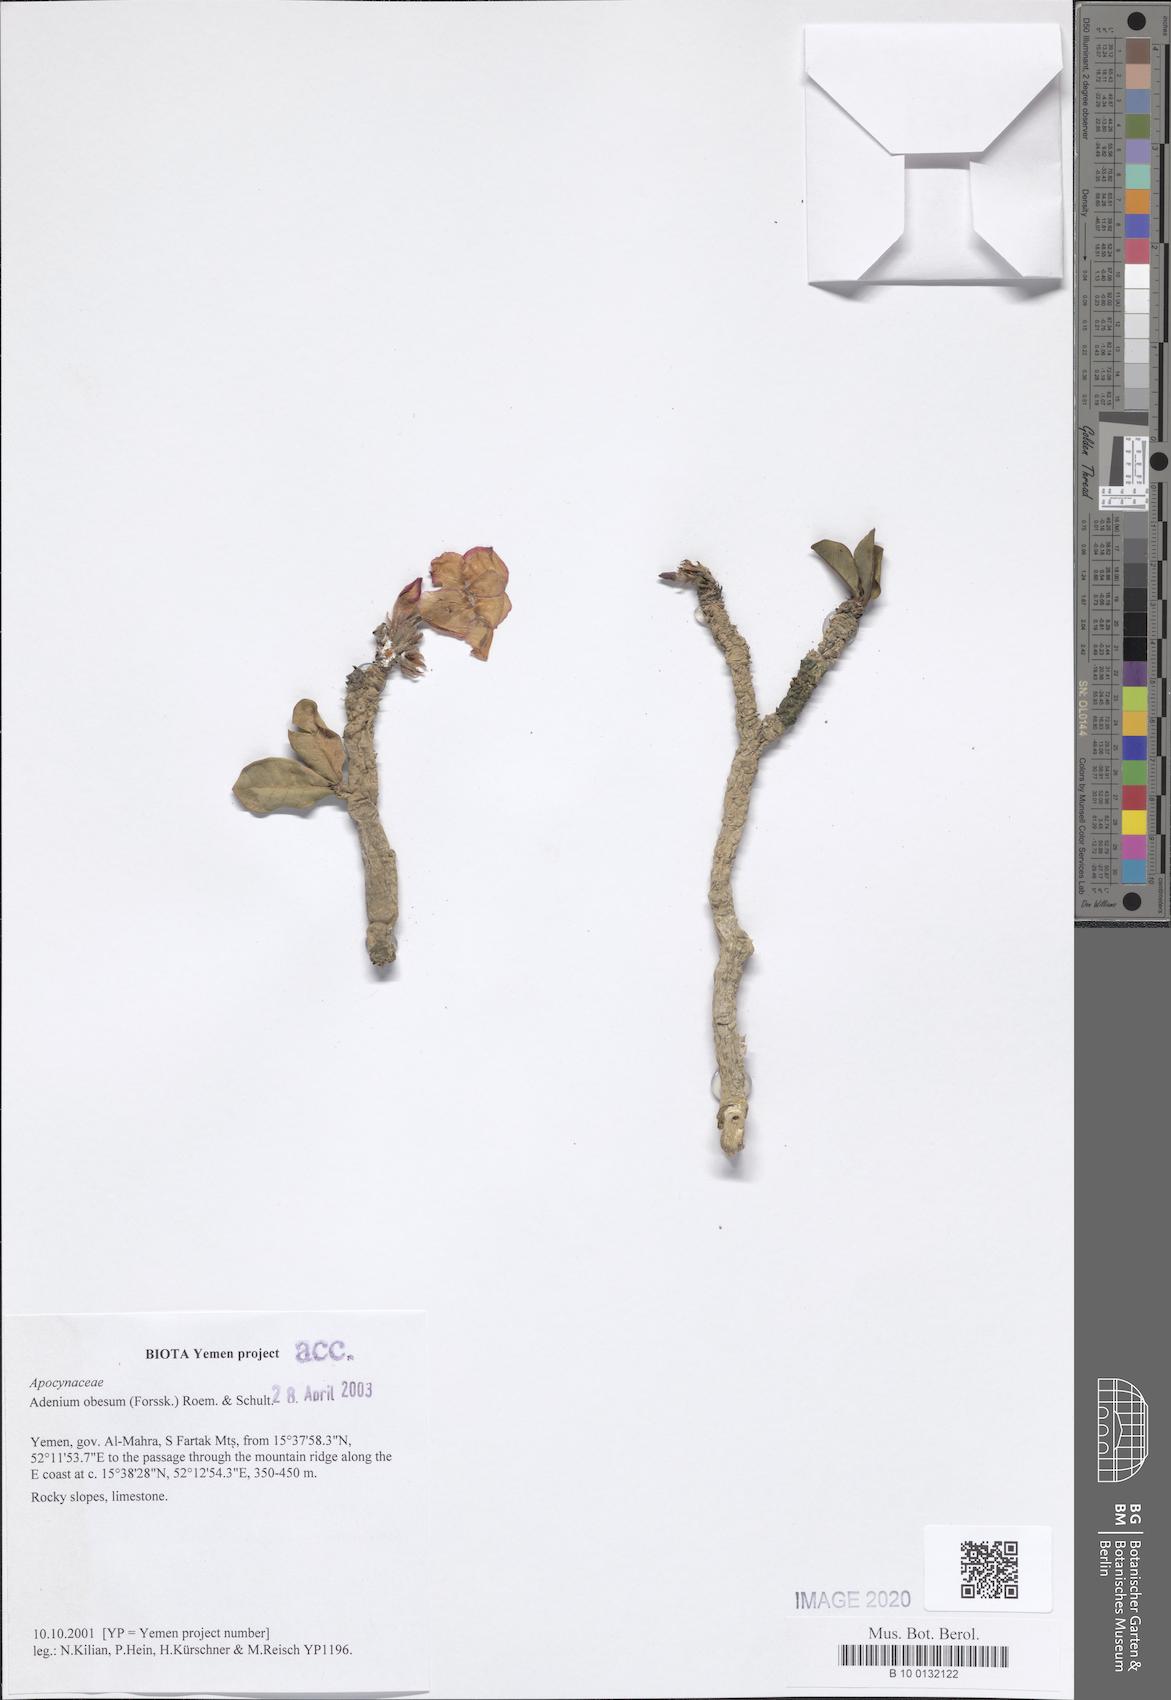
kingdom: Plantae
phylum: Tracheophyta
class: Magnoliopsida
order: Gentianales
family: Apocynaceae
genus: Adenium
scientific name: Adenium obesum
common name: Desert-rose
